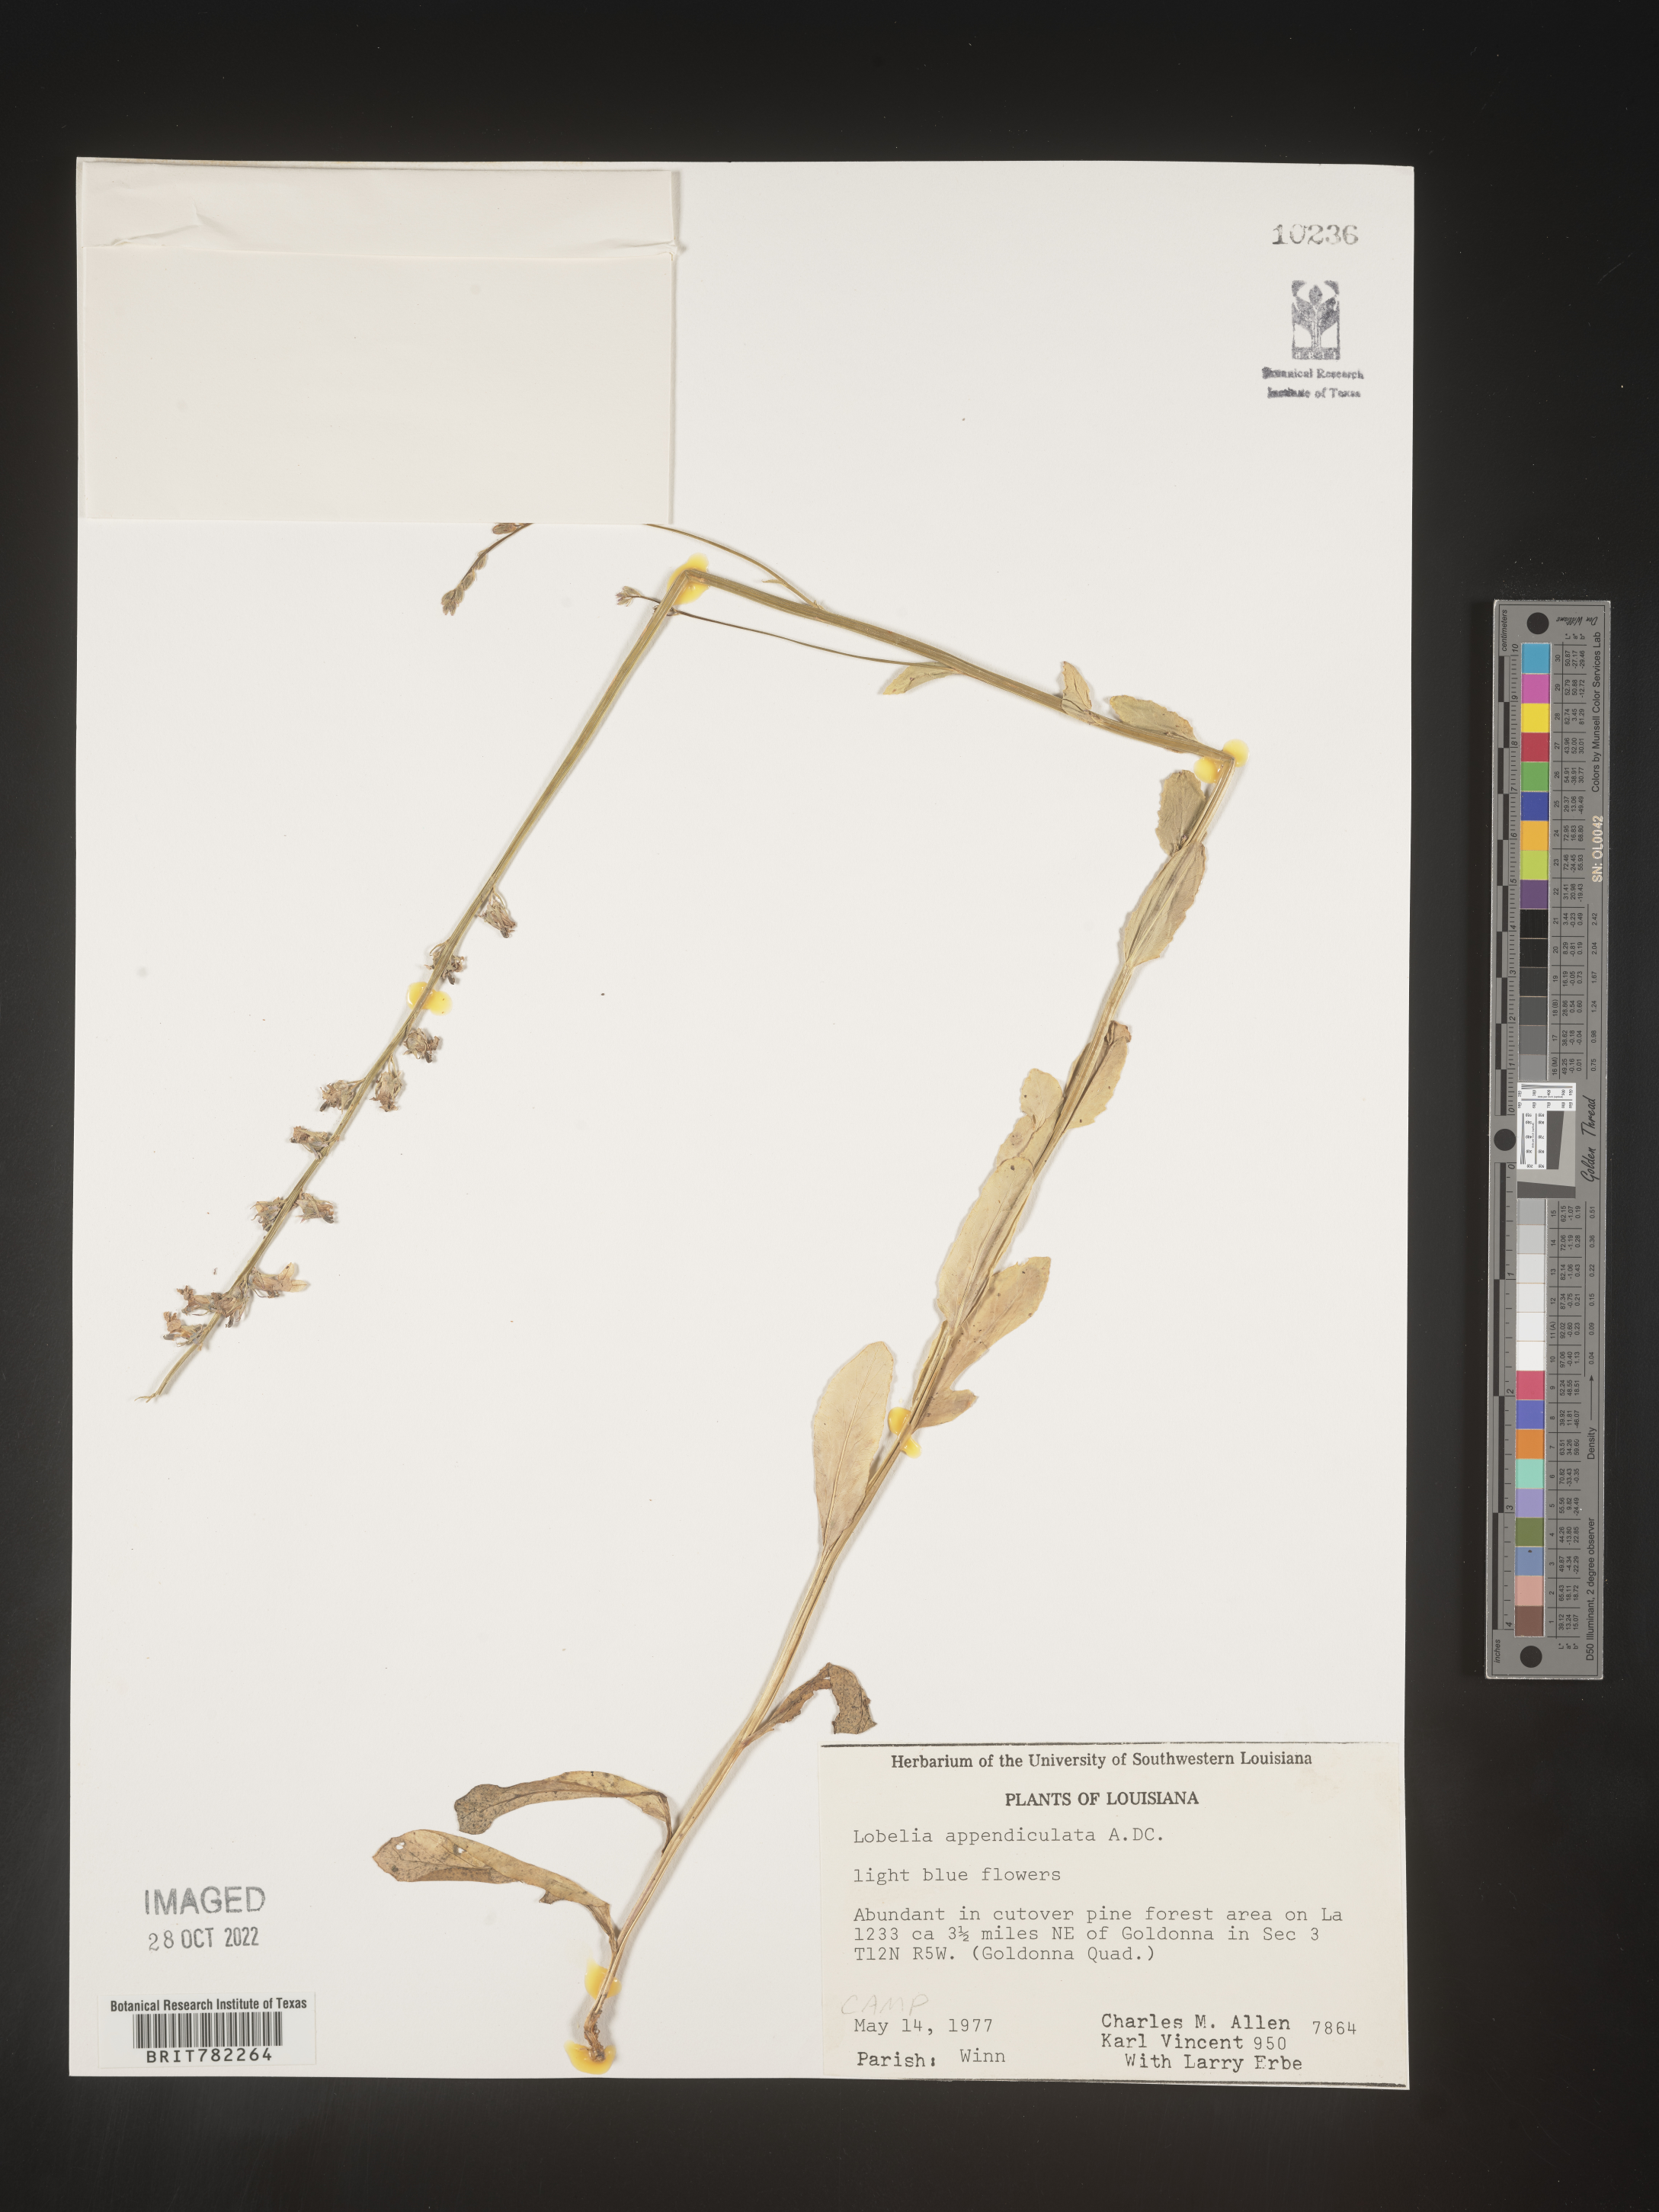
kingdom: Plantae
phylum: Tracheophyta
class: Magnoliopsida
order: Asterales
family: Campanulaceae
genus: Lobelia
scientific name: Lobelia appendiculata
